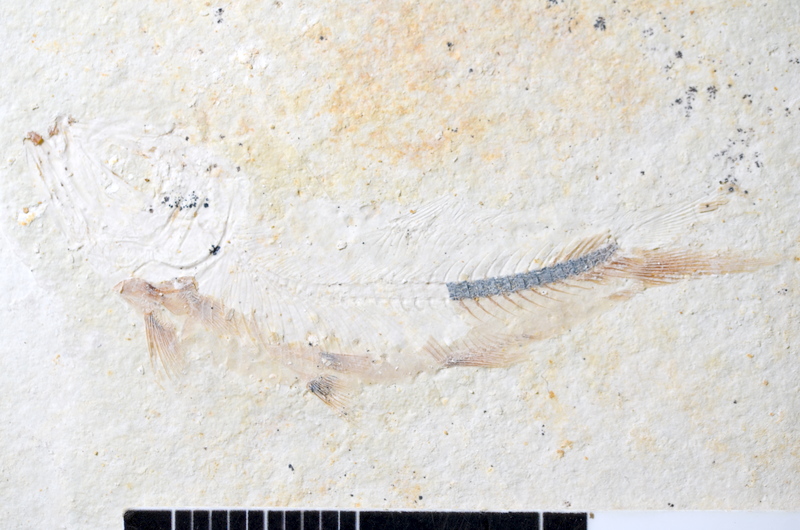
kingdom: Animalia
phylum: Chordata
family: Ascalaboidae
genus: Ebertichthys
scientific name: Ebertichthys ettlingensis
